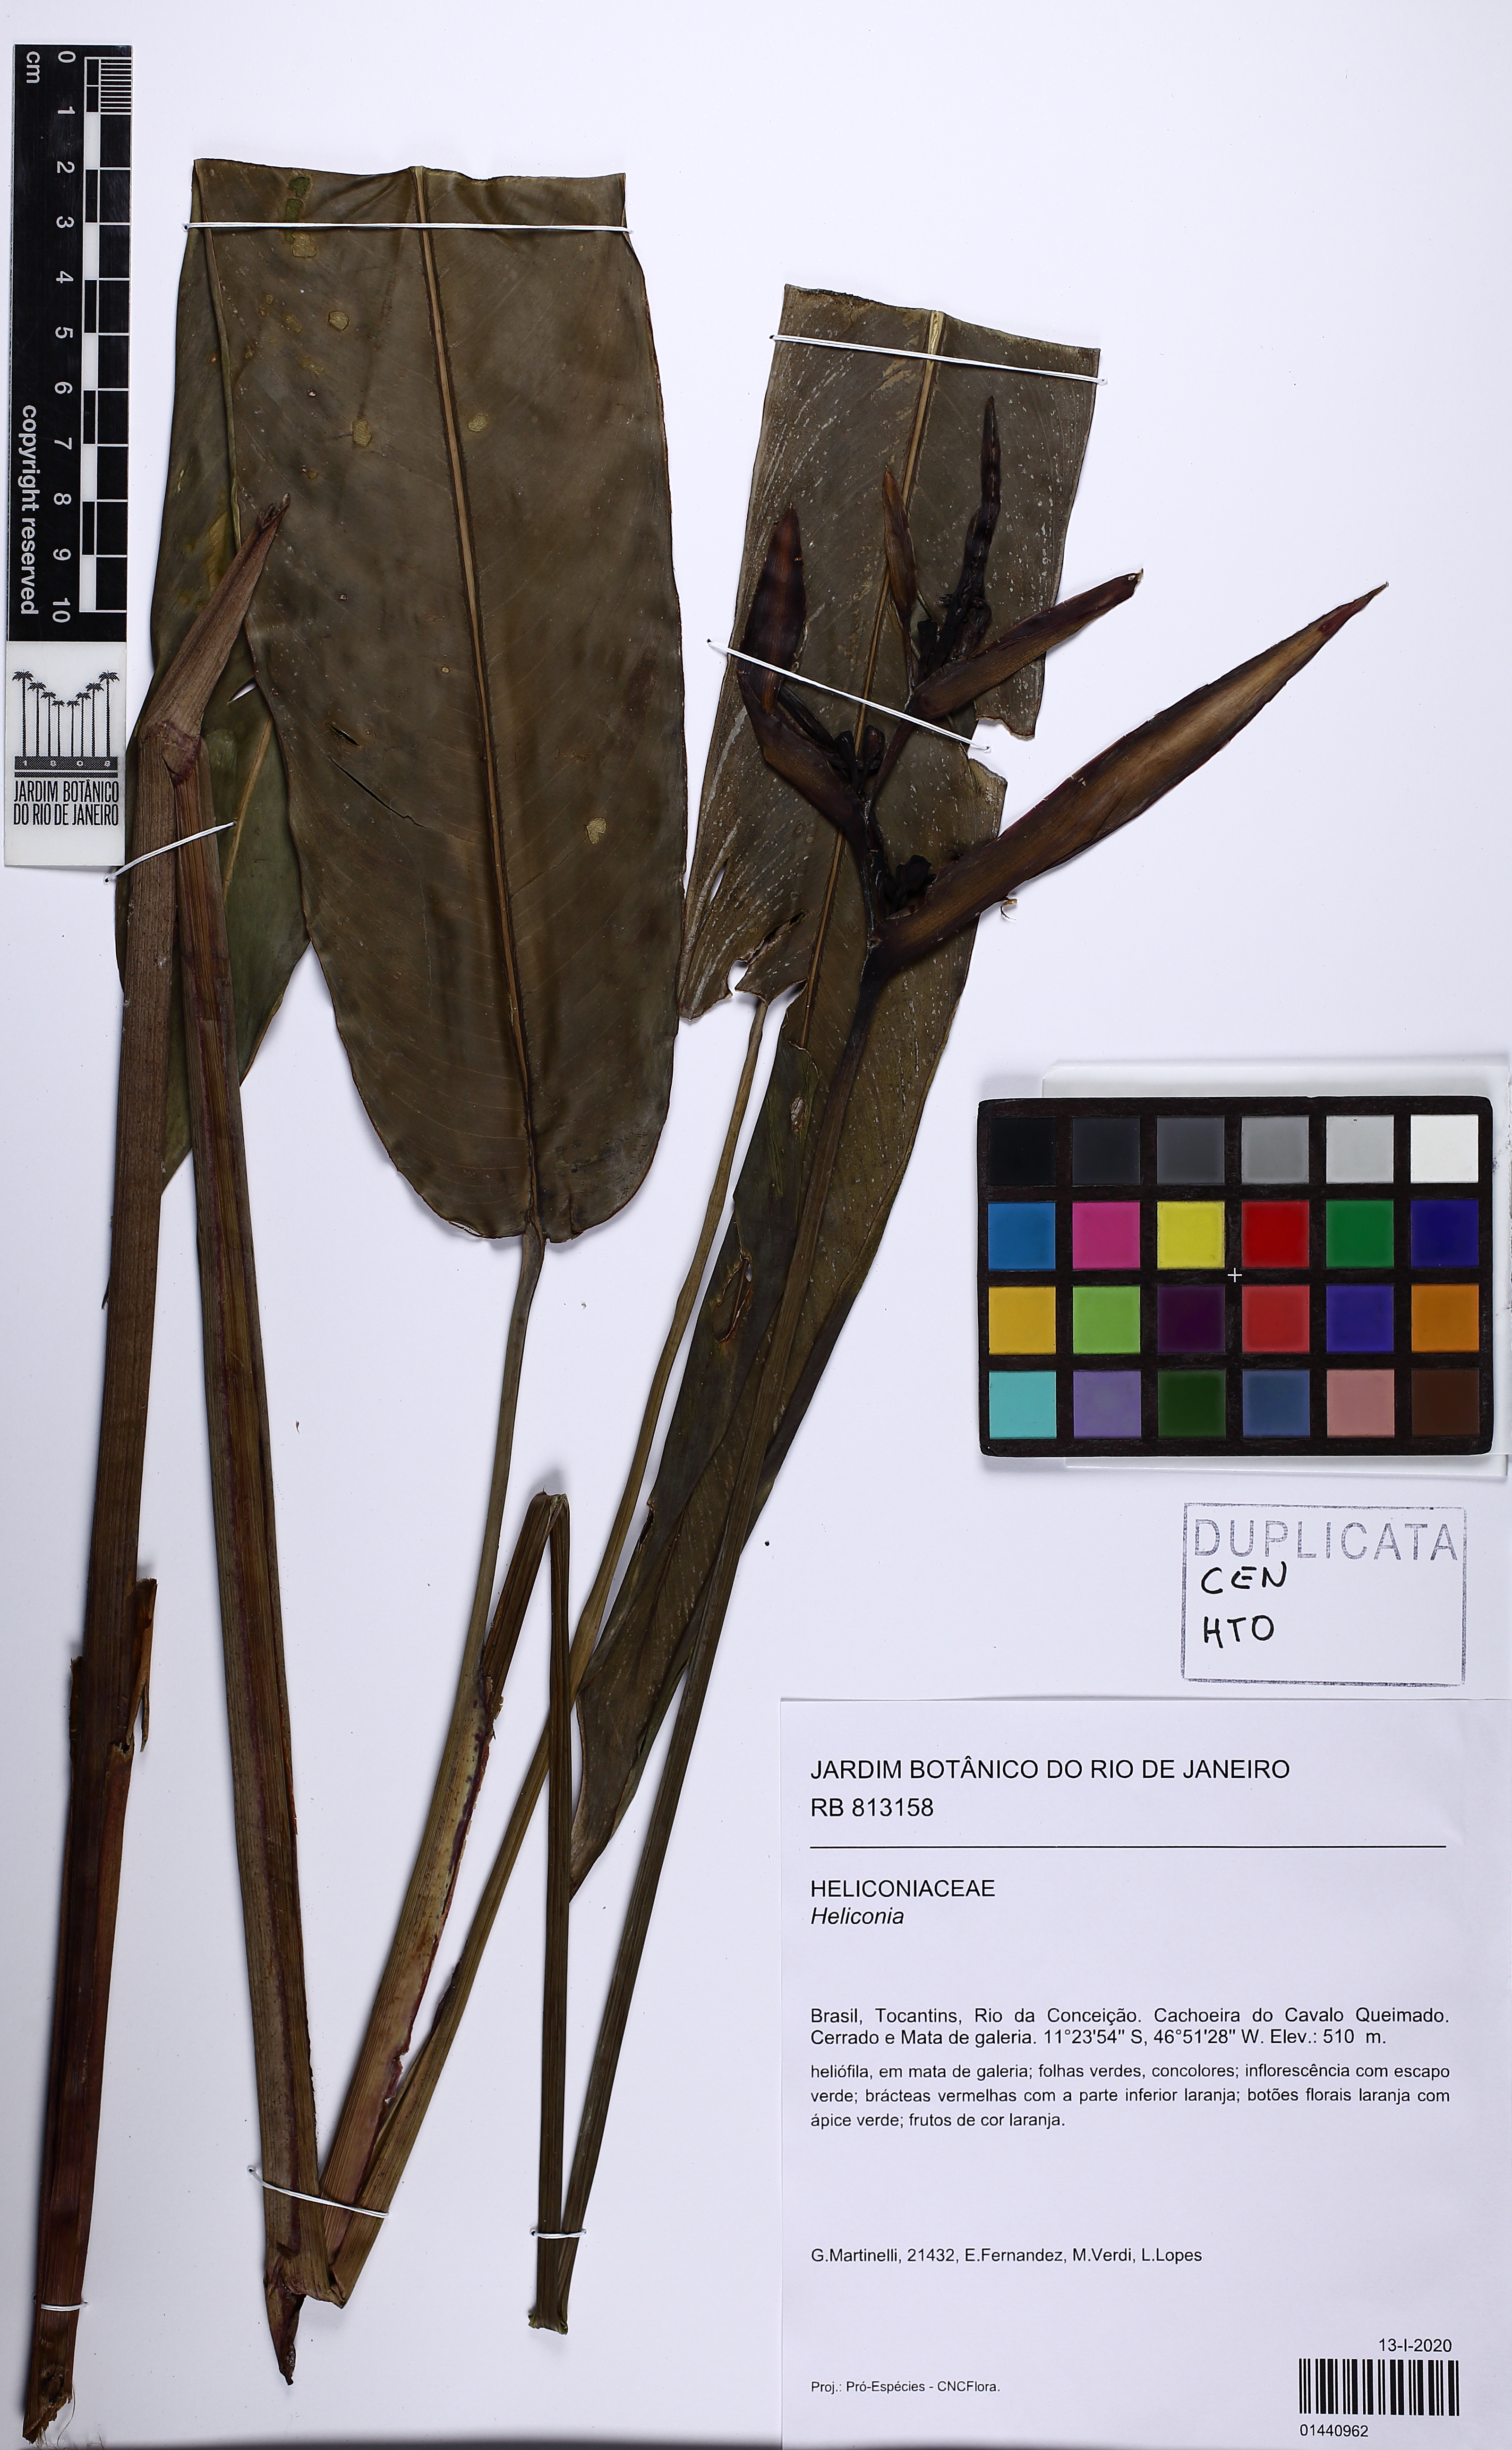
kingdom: Plantae
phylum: Tracheophyta
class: Liliopsida
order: Zingiberales
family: Heliconiaceae
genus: Heliconia
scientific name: Heliconia
